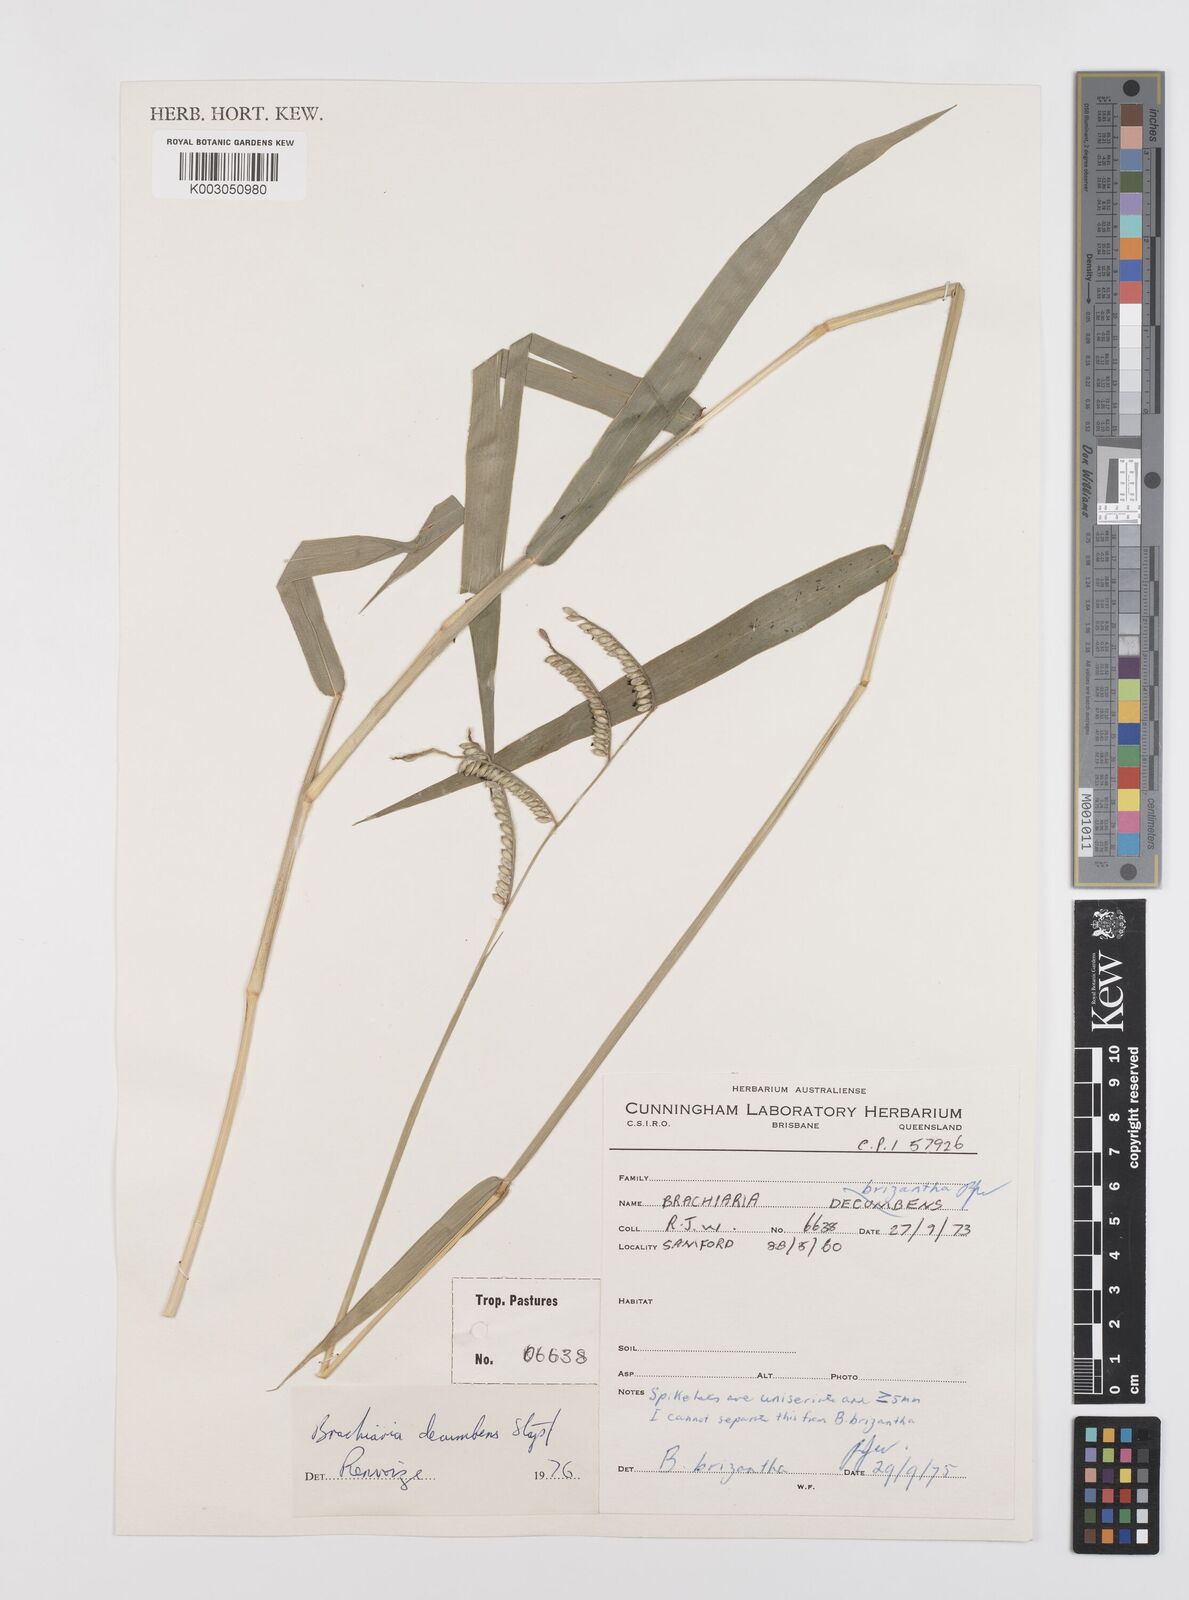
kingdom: Plantae
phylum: Tracheophyta
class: Liliopsida
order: Poales
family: Poaceae
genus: Urochloa
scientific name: Urochloa brizantha
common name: Palisade signalgrass
